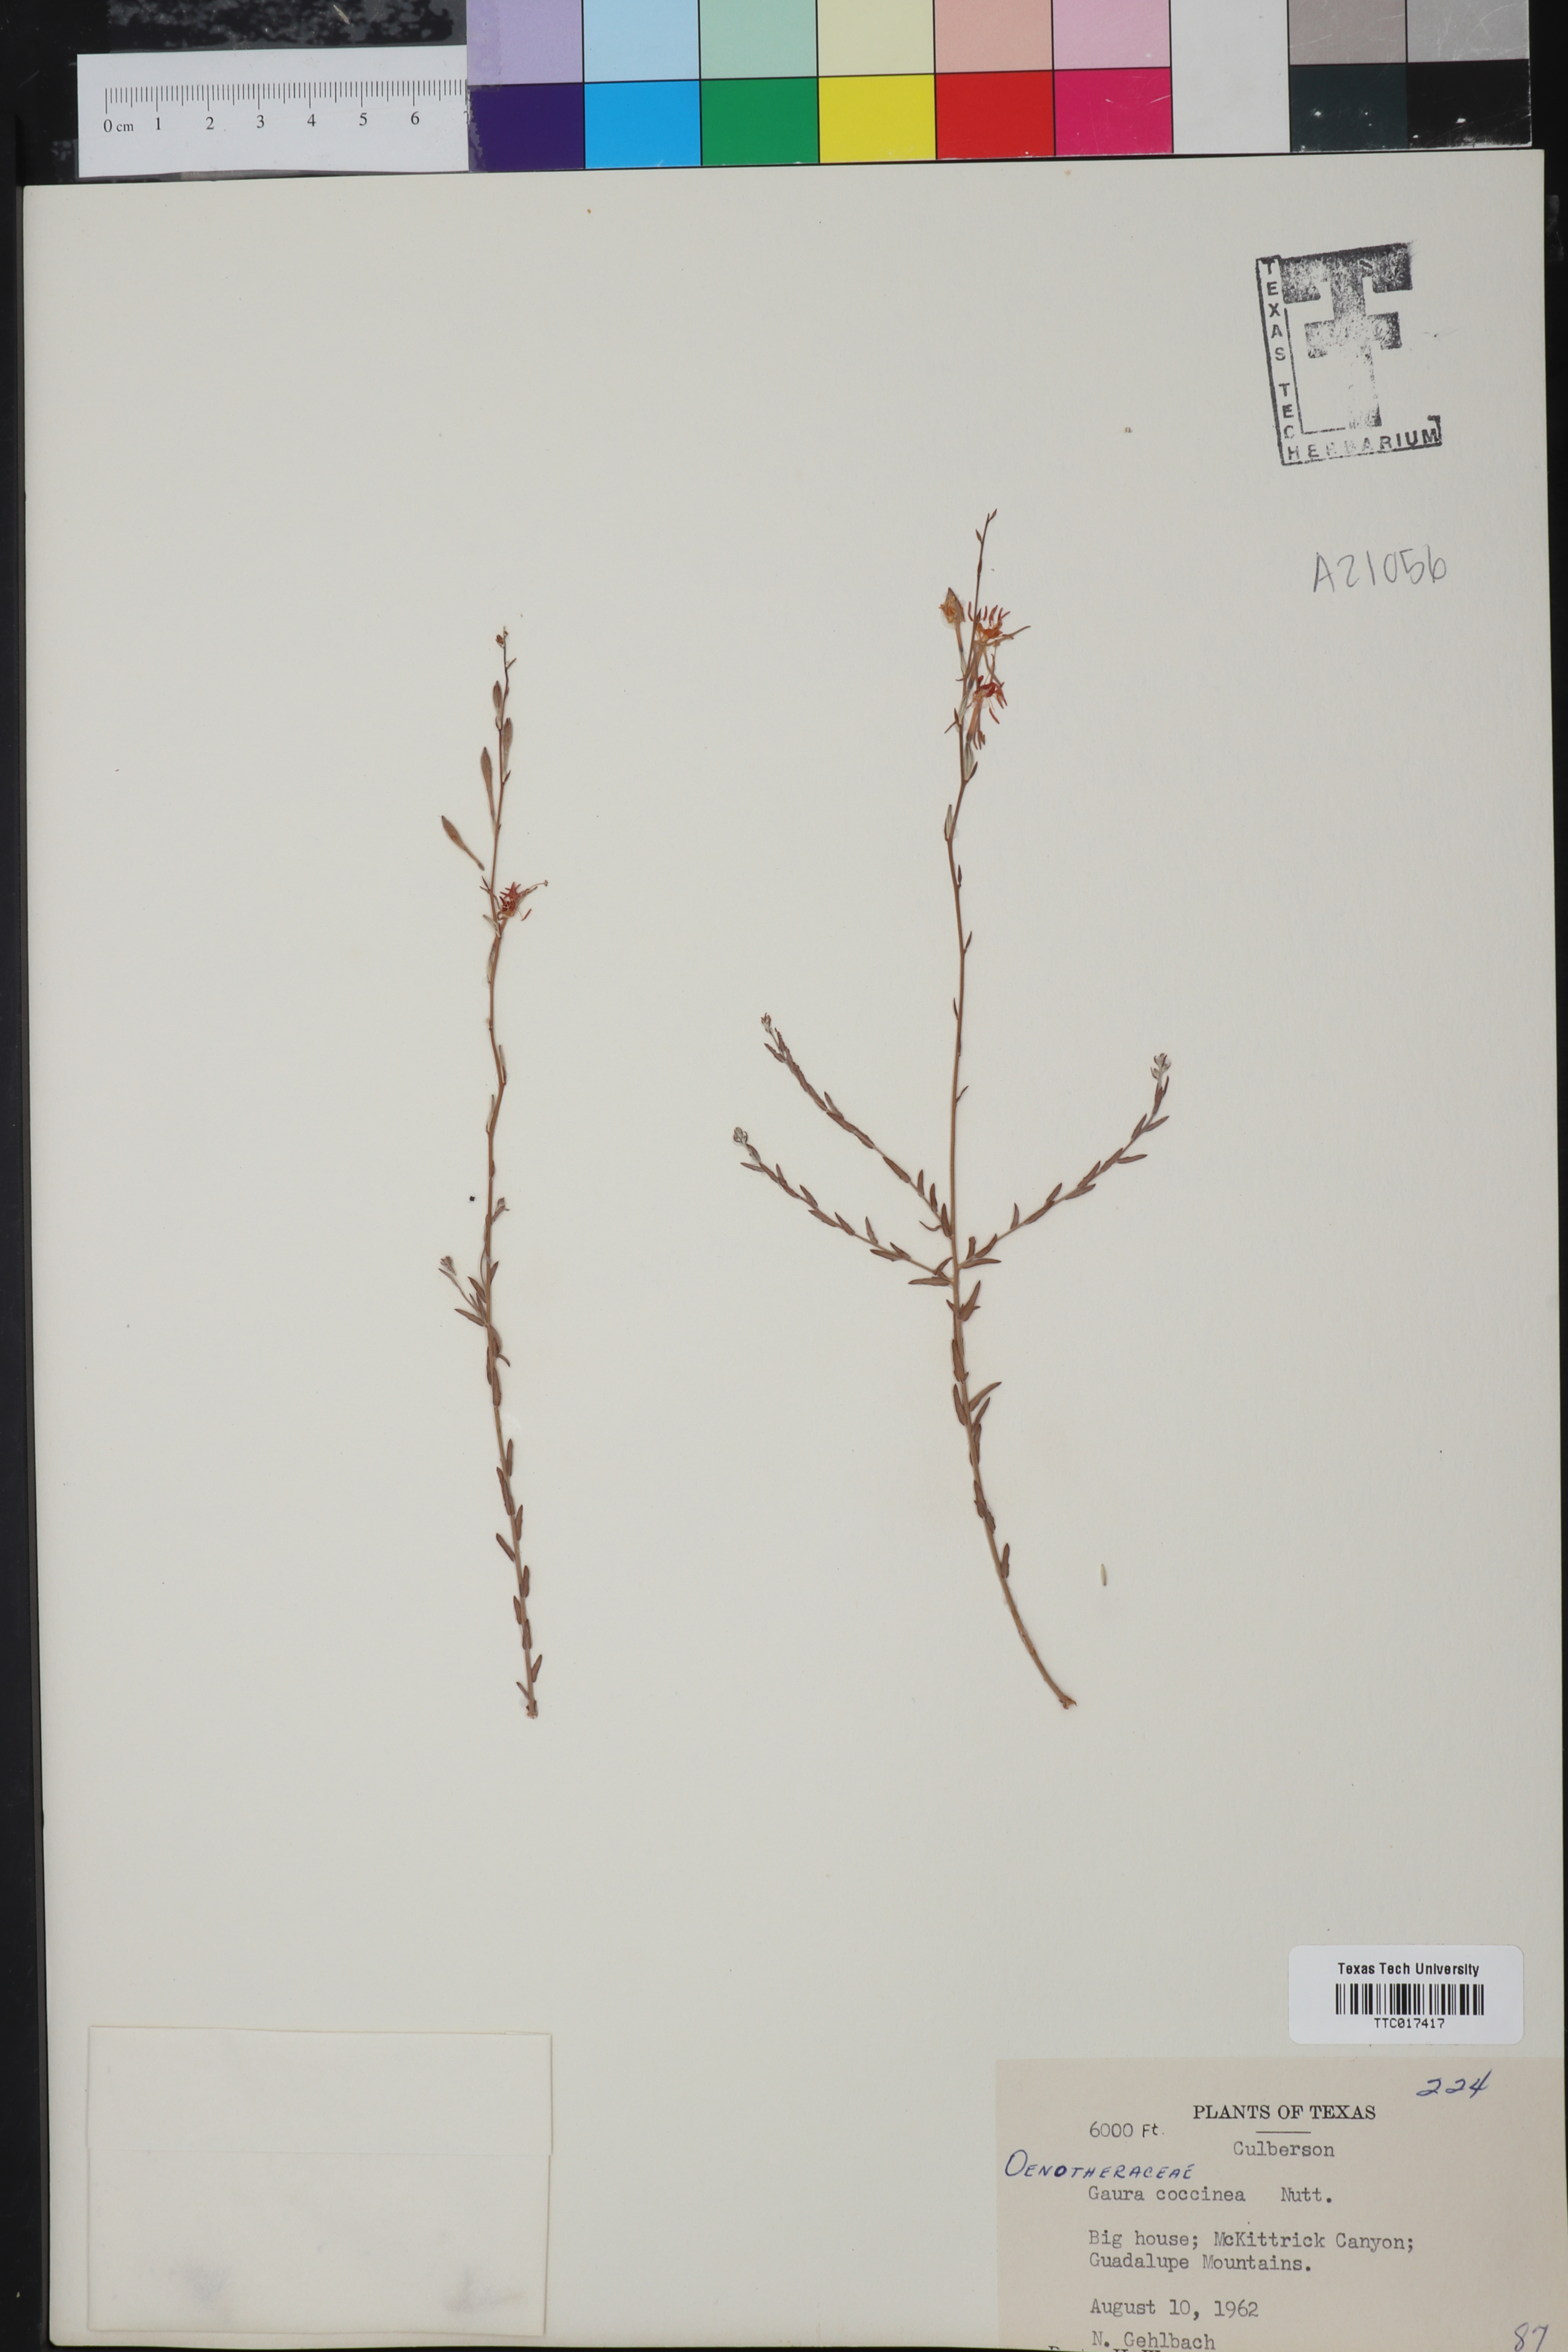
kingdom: Plantae
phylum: Tracheophyta
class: Magnoliopsida
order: Myrtales
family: Onagraceae
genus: Oenothera
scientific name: Oenothera suffrutescens
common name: Scarlet beeblossom
